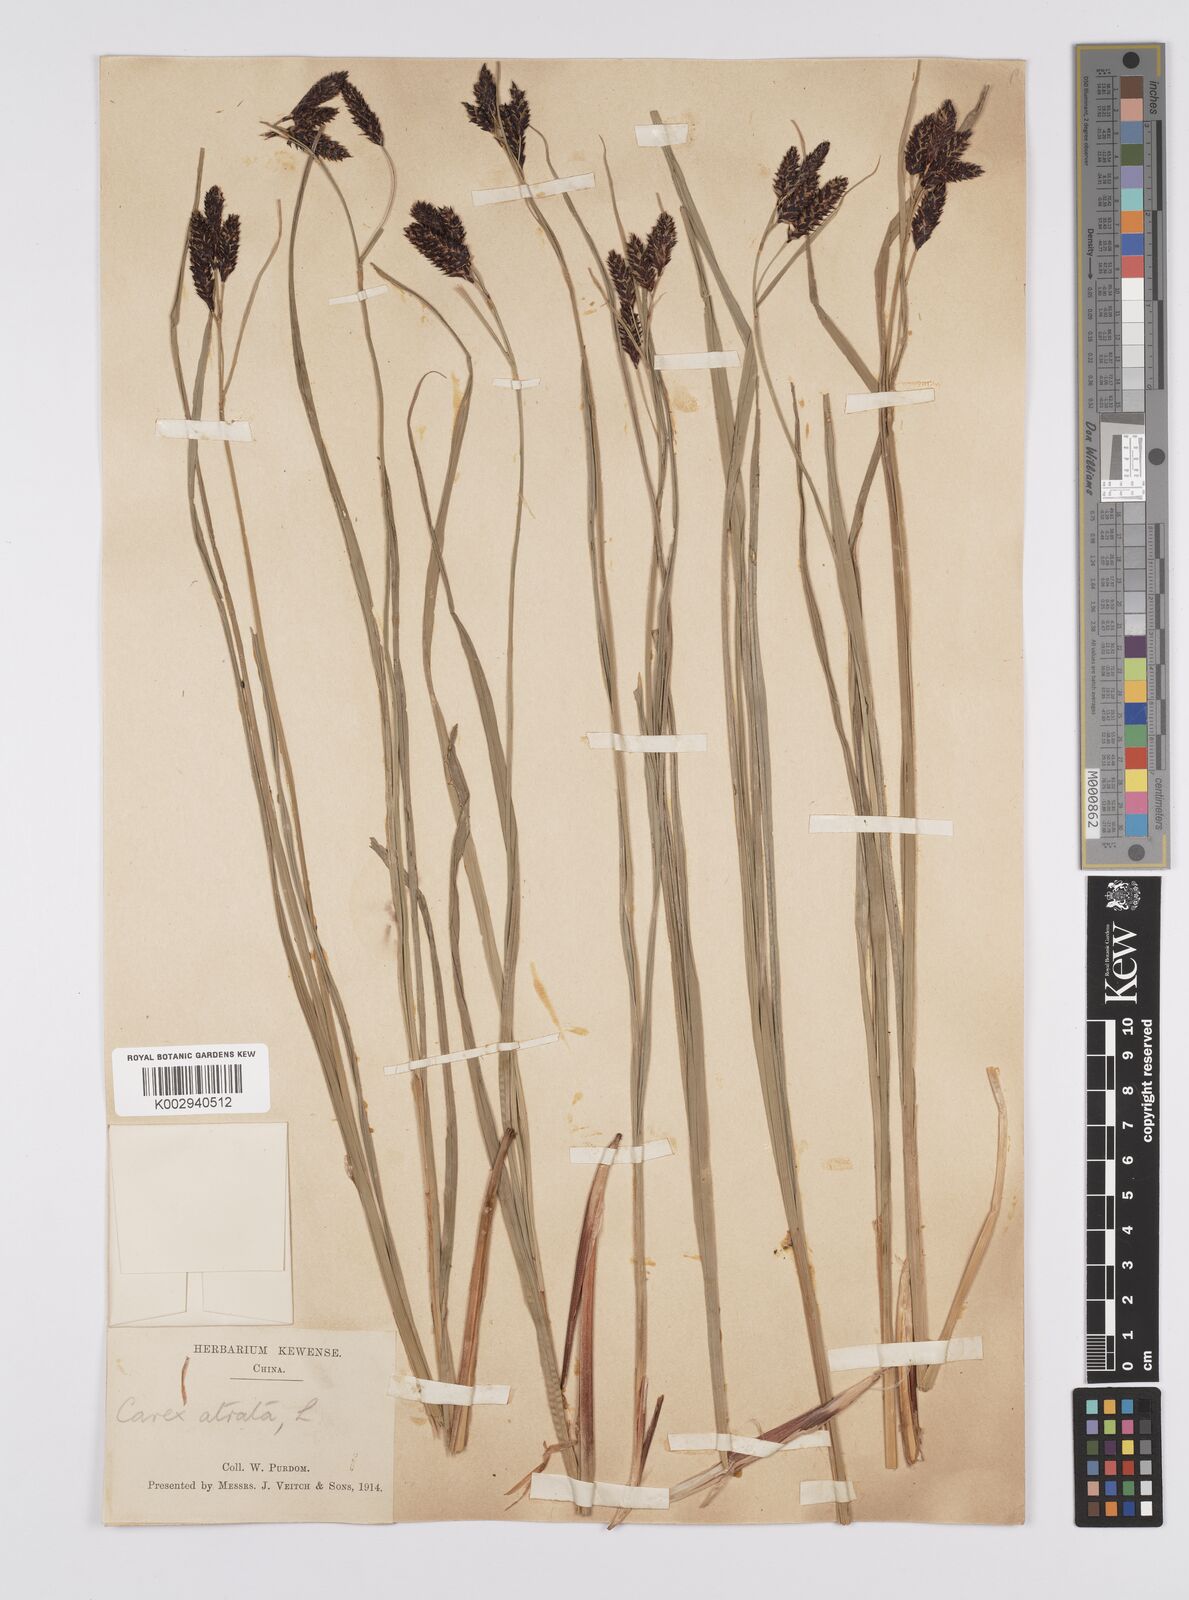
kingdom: Plantae
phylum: Tracheophyta
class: Liliopsida
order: Poales
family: Cyperaceae
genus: Carex
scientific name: Carex atrata
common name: Black alpine sedge
